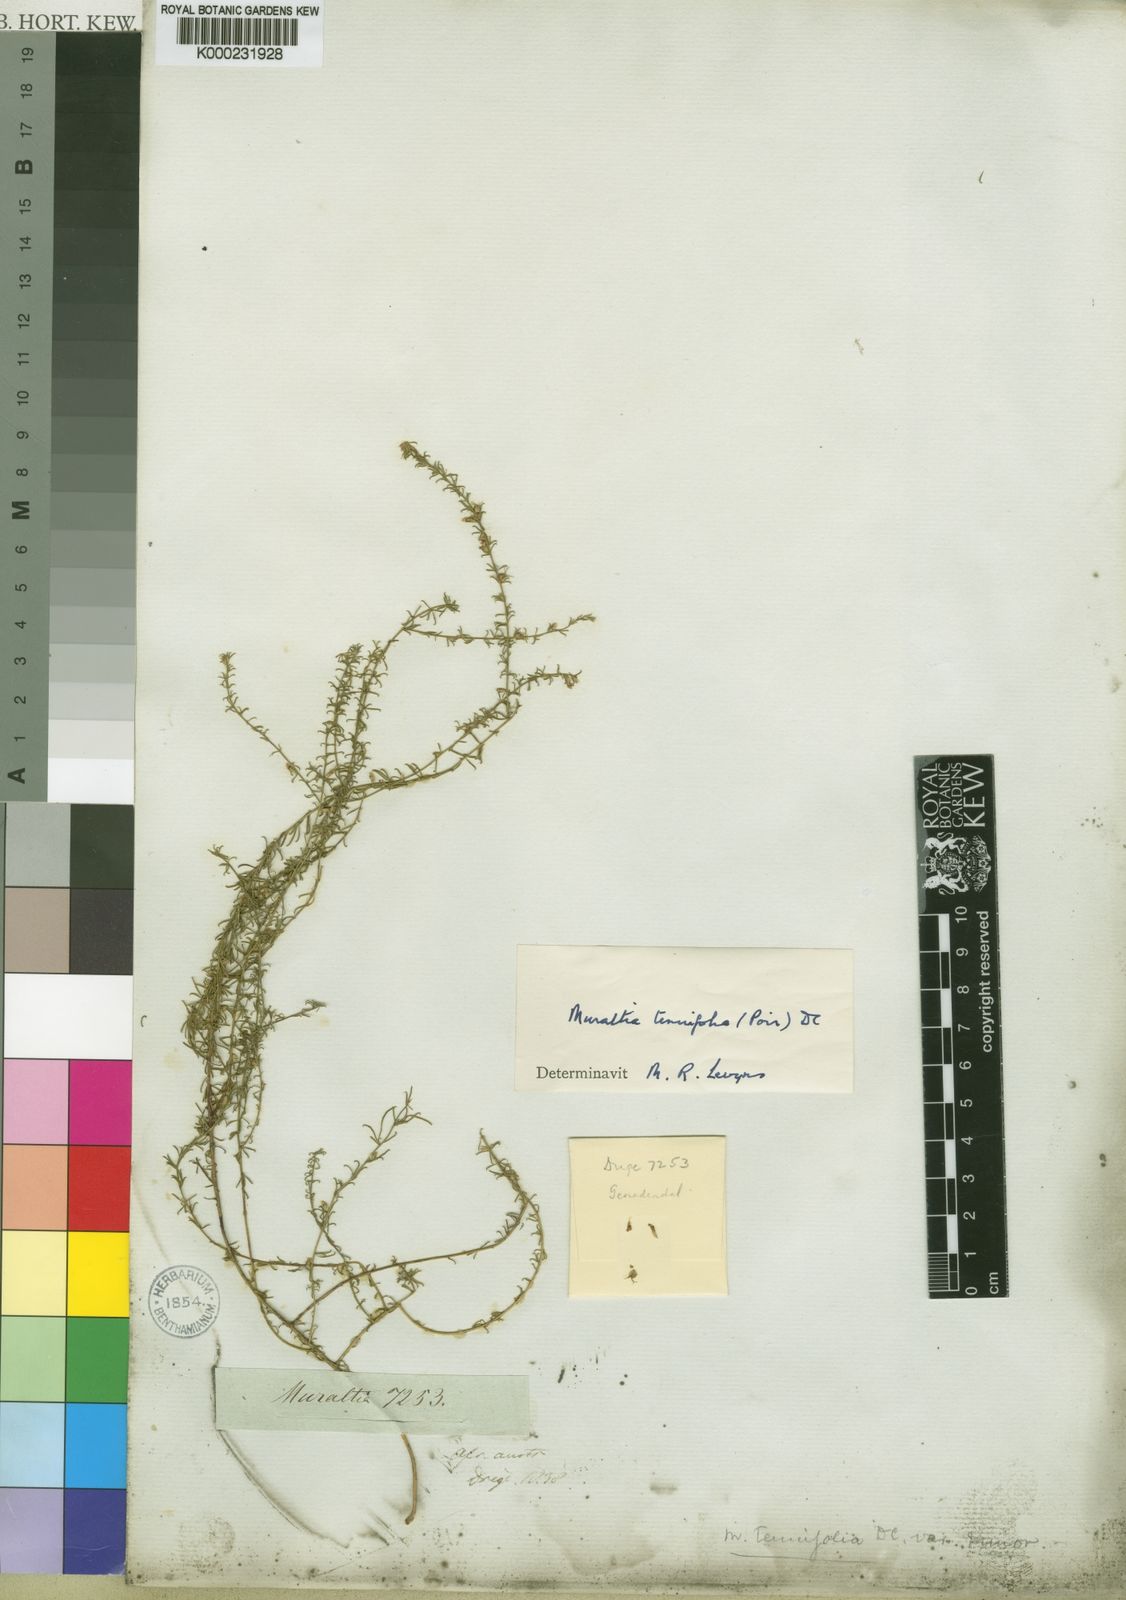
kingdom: Plantae
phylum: Tracheophyta
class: Magnoliopsida
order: Fabales
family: Polygalaceae
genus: Muraltia
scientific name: Muraltia tenuifolia
